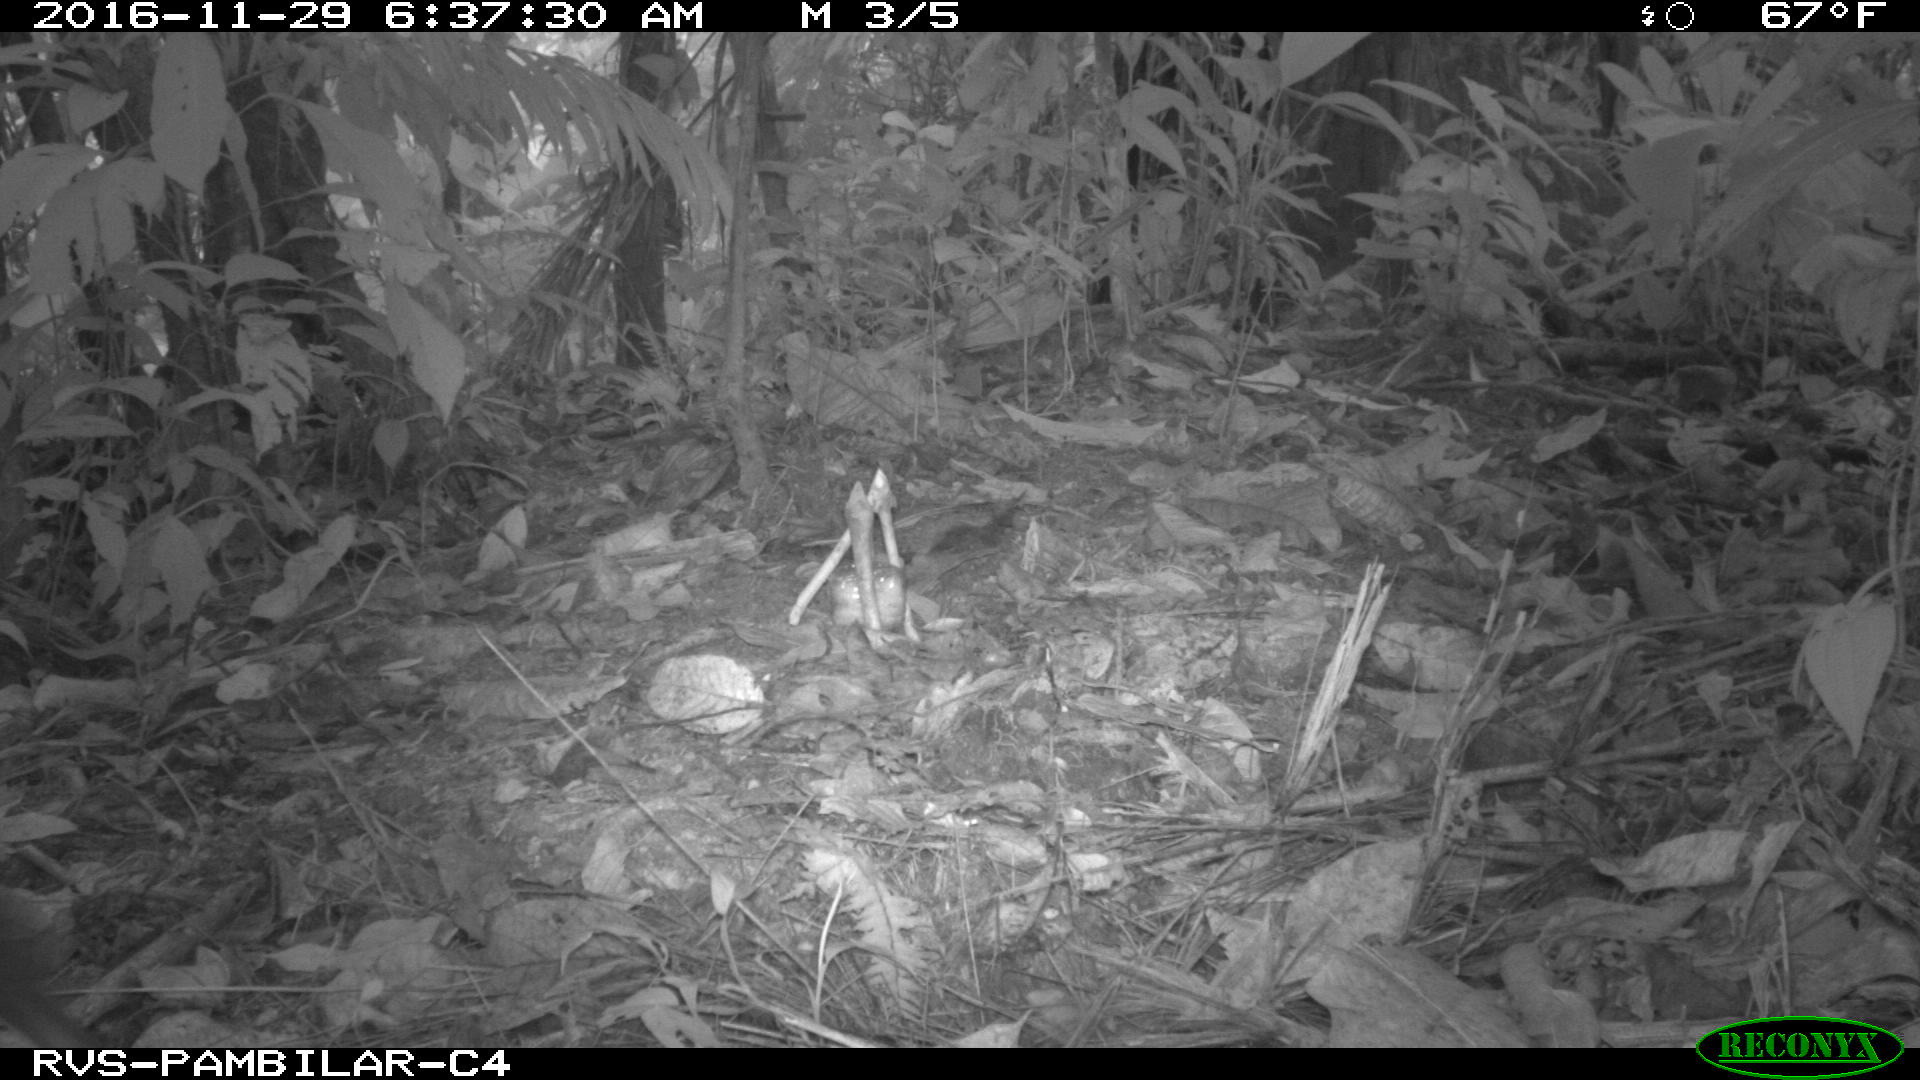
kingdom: Animalia
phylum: Chordata
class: Mammalia
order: Rodentia
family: Dasyproctidae
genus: Dasyprocta
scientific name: Dasyprocta punctata
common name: Central american agouti
